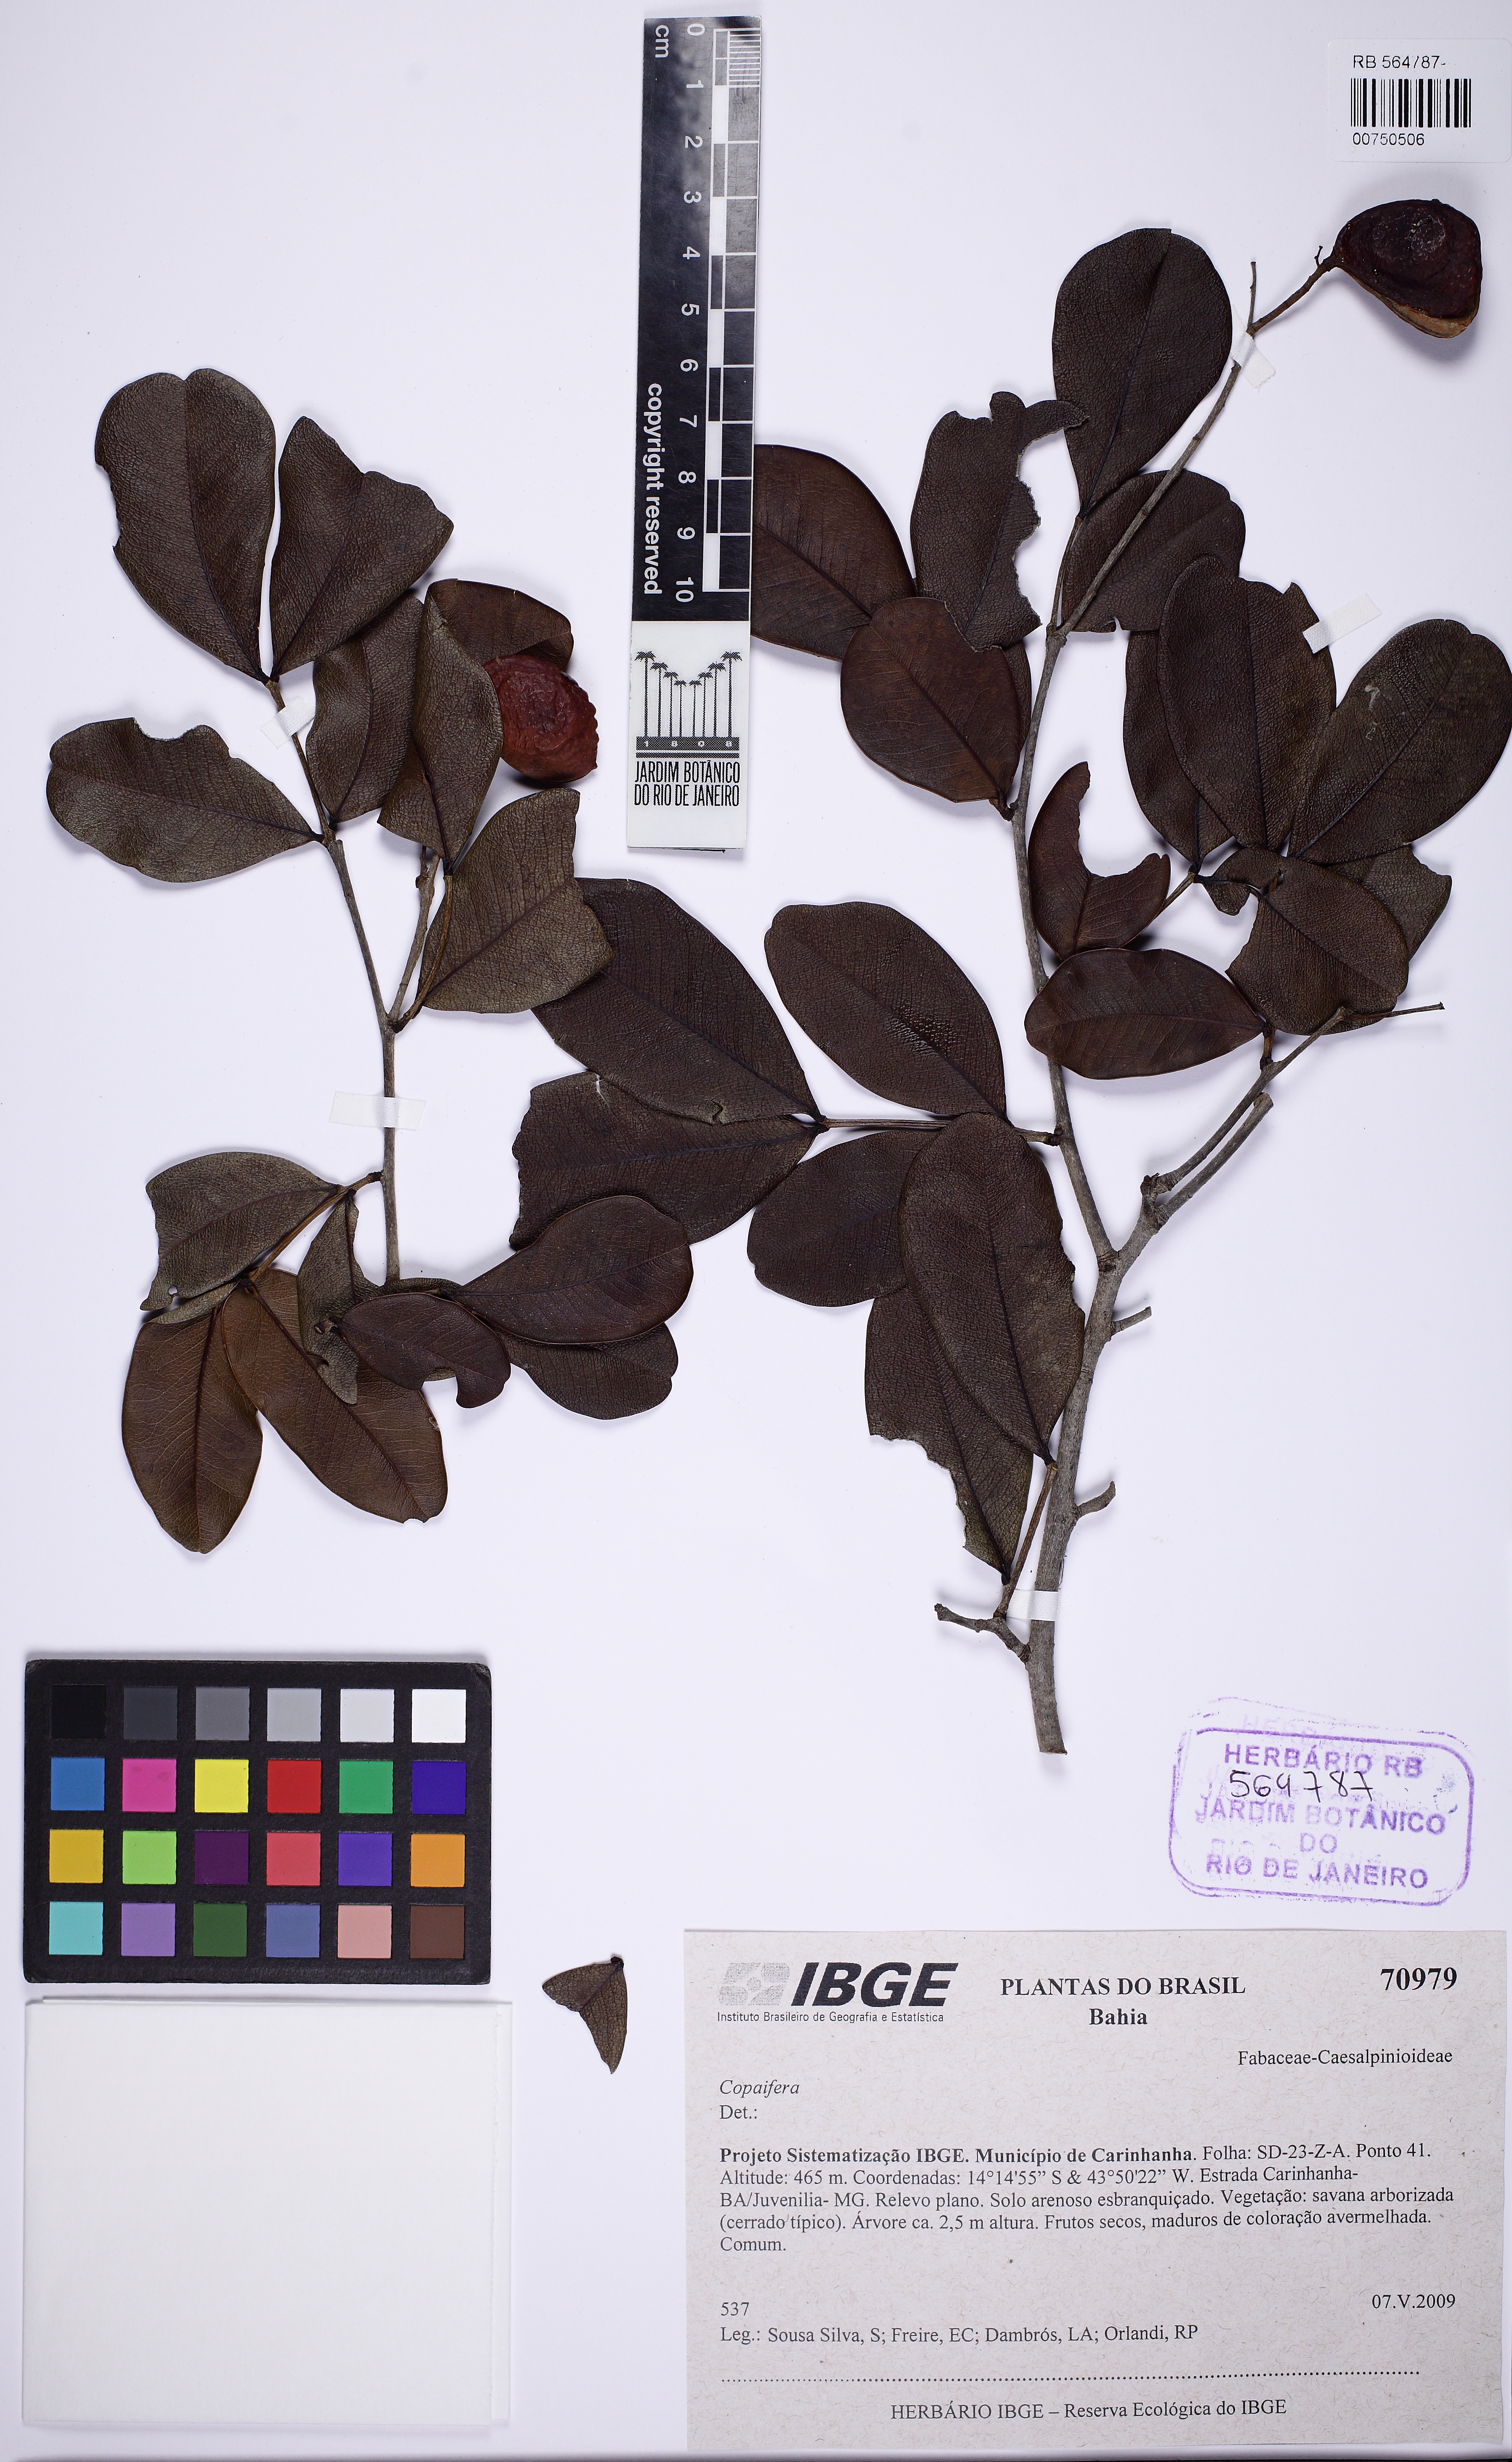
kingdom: Plantae
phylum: Tracheophyta
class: Magnoliopsida
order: Fabales
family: Fabaceae
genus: Copaifera
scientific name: Copaifera
